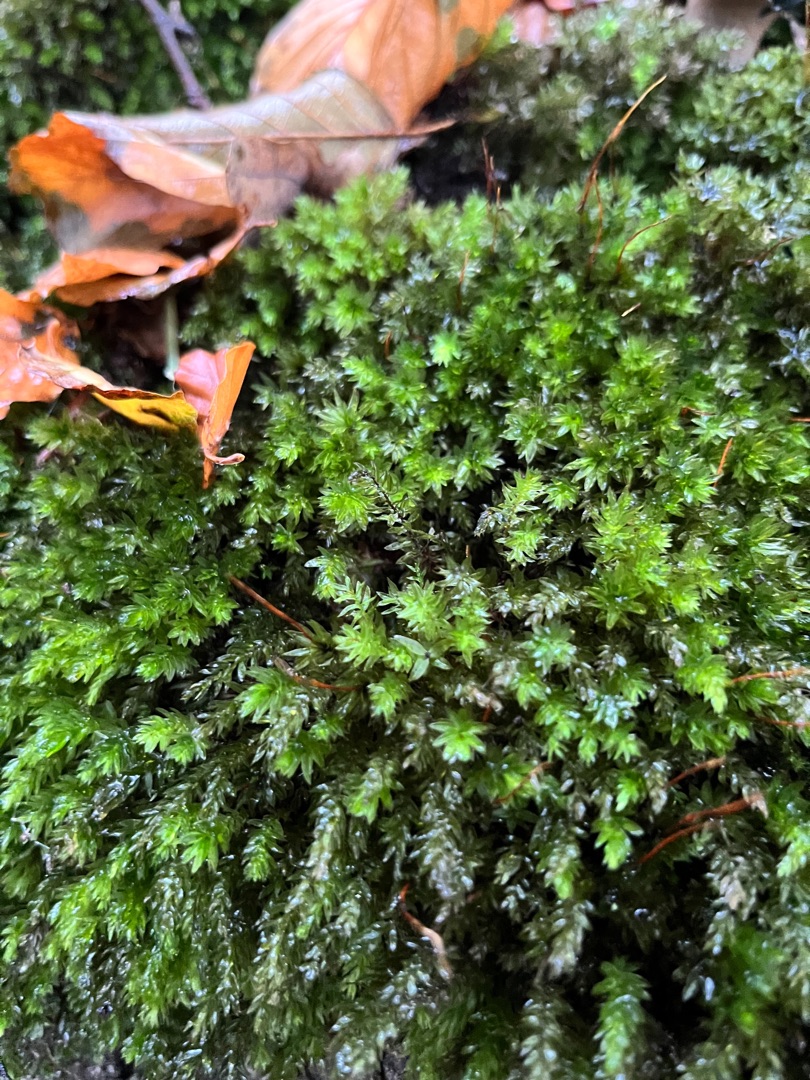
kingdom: Plantae
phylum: Bryophyta
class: Bryopsida
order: Bryales
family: Mniaceae
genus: Mnium
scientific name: Mnium hornum
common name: Brunfiltet stjernemos
